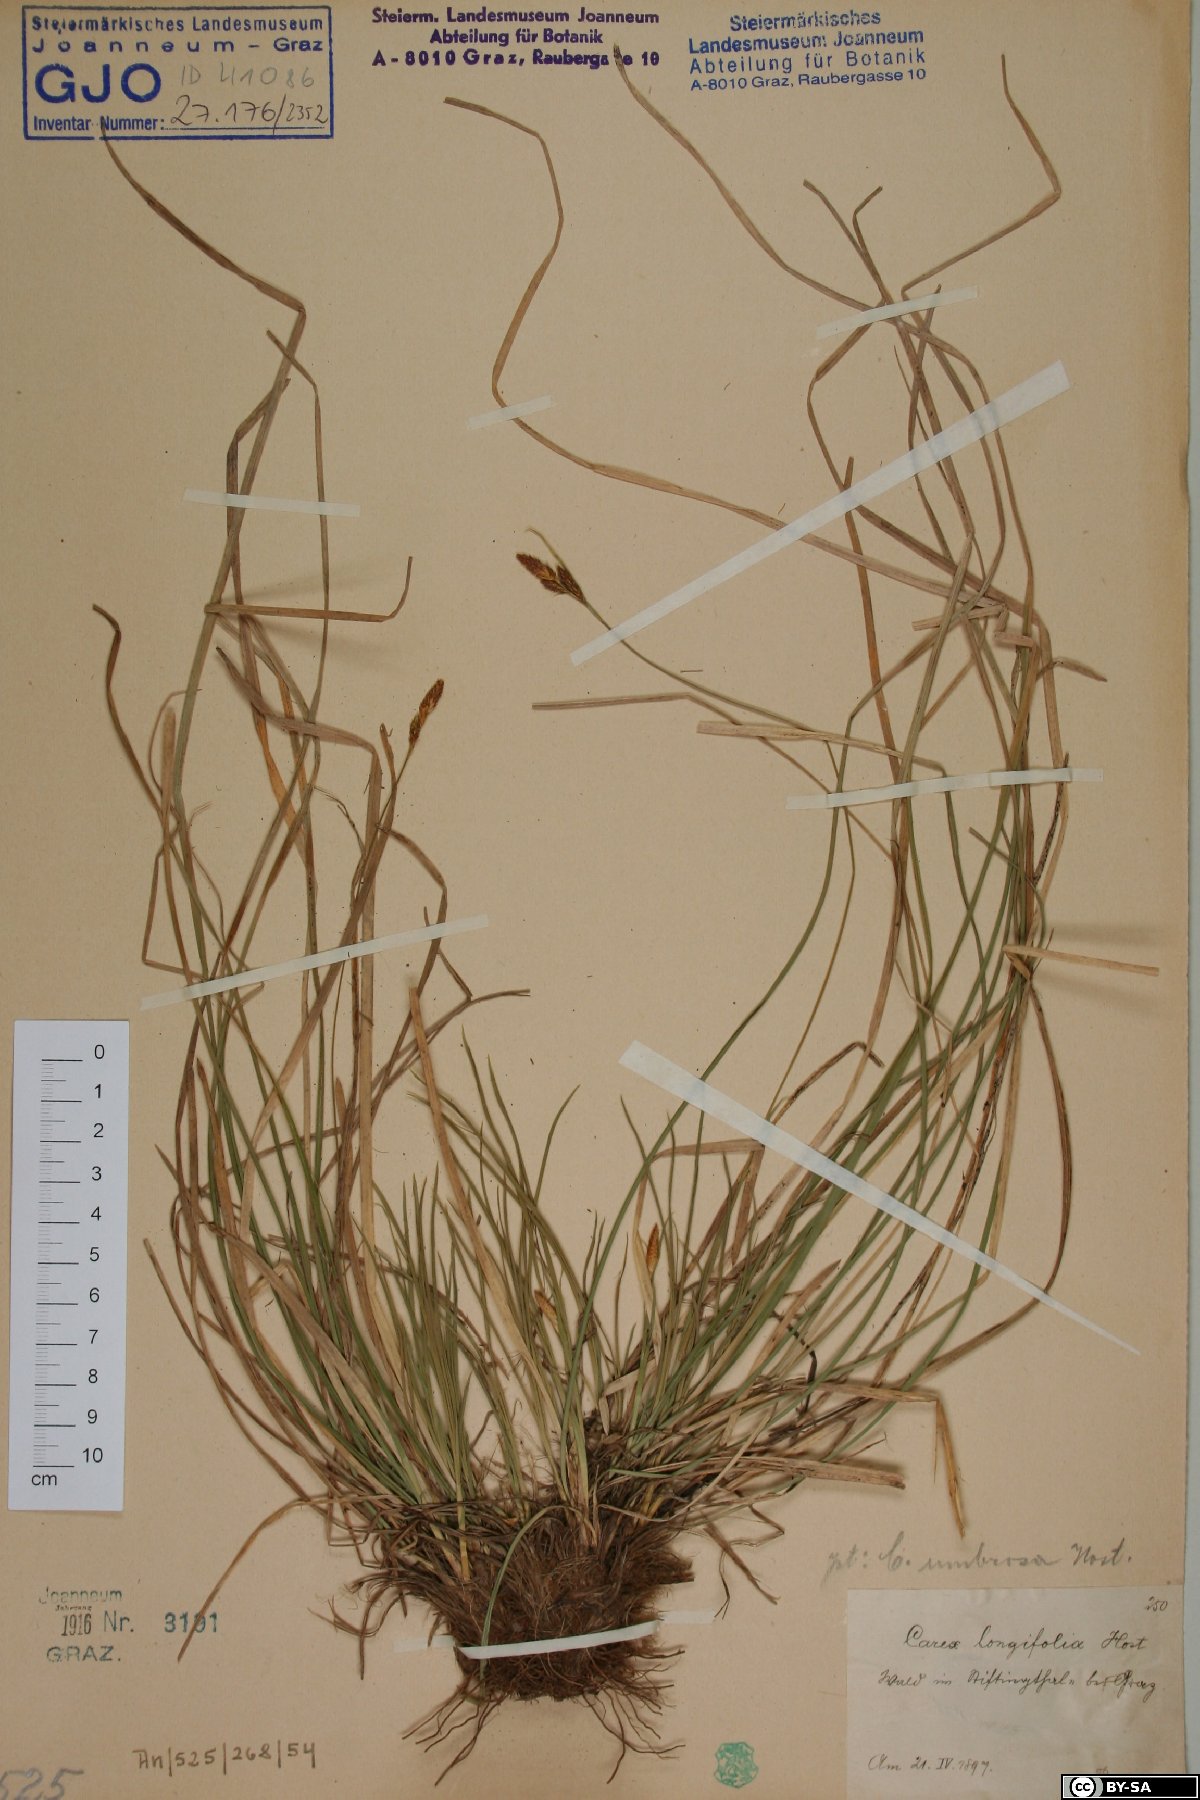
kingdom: Plantae
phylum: Tracheophyta
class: Liliopsida
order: Poales
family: Cyperaceae
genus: Carex
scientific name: Carex umbrosa
